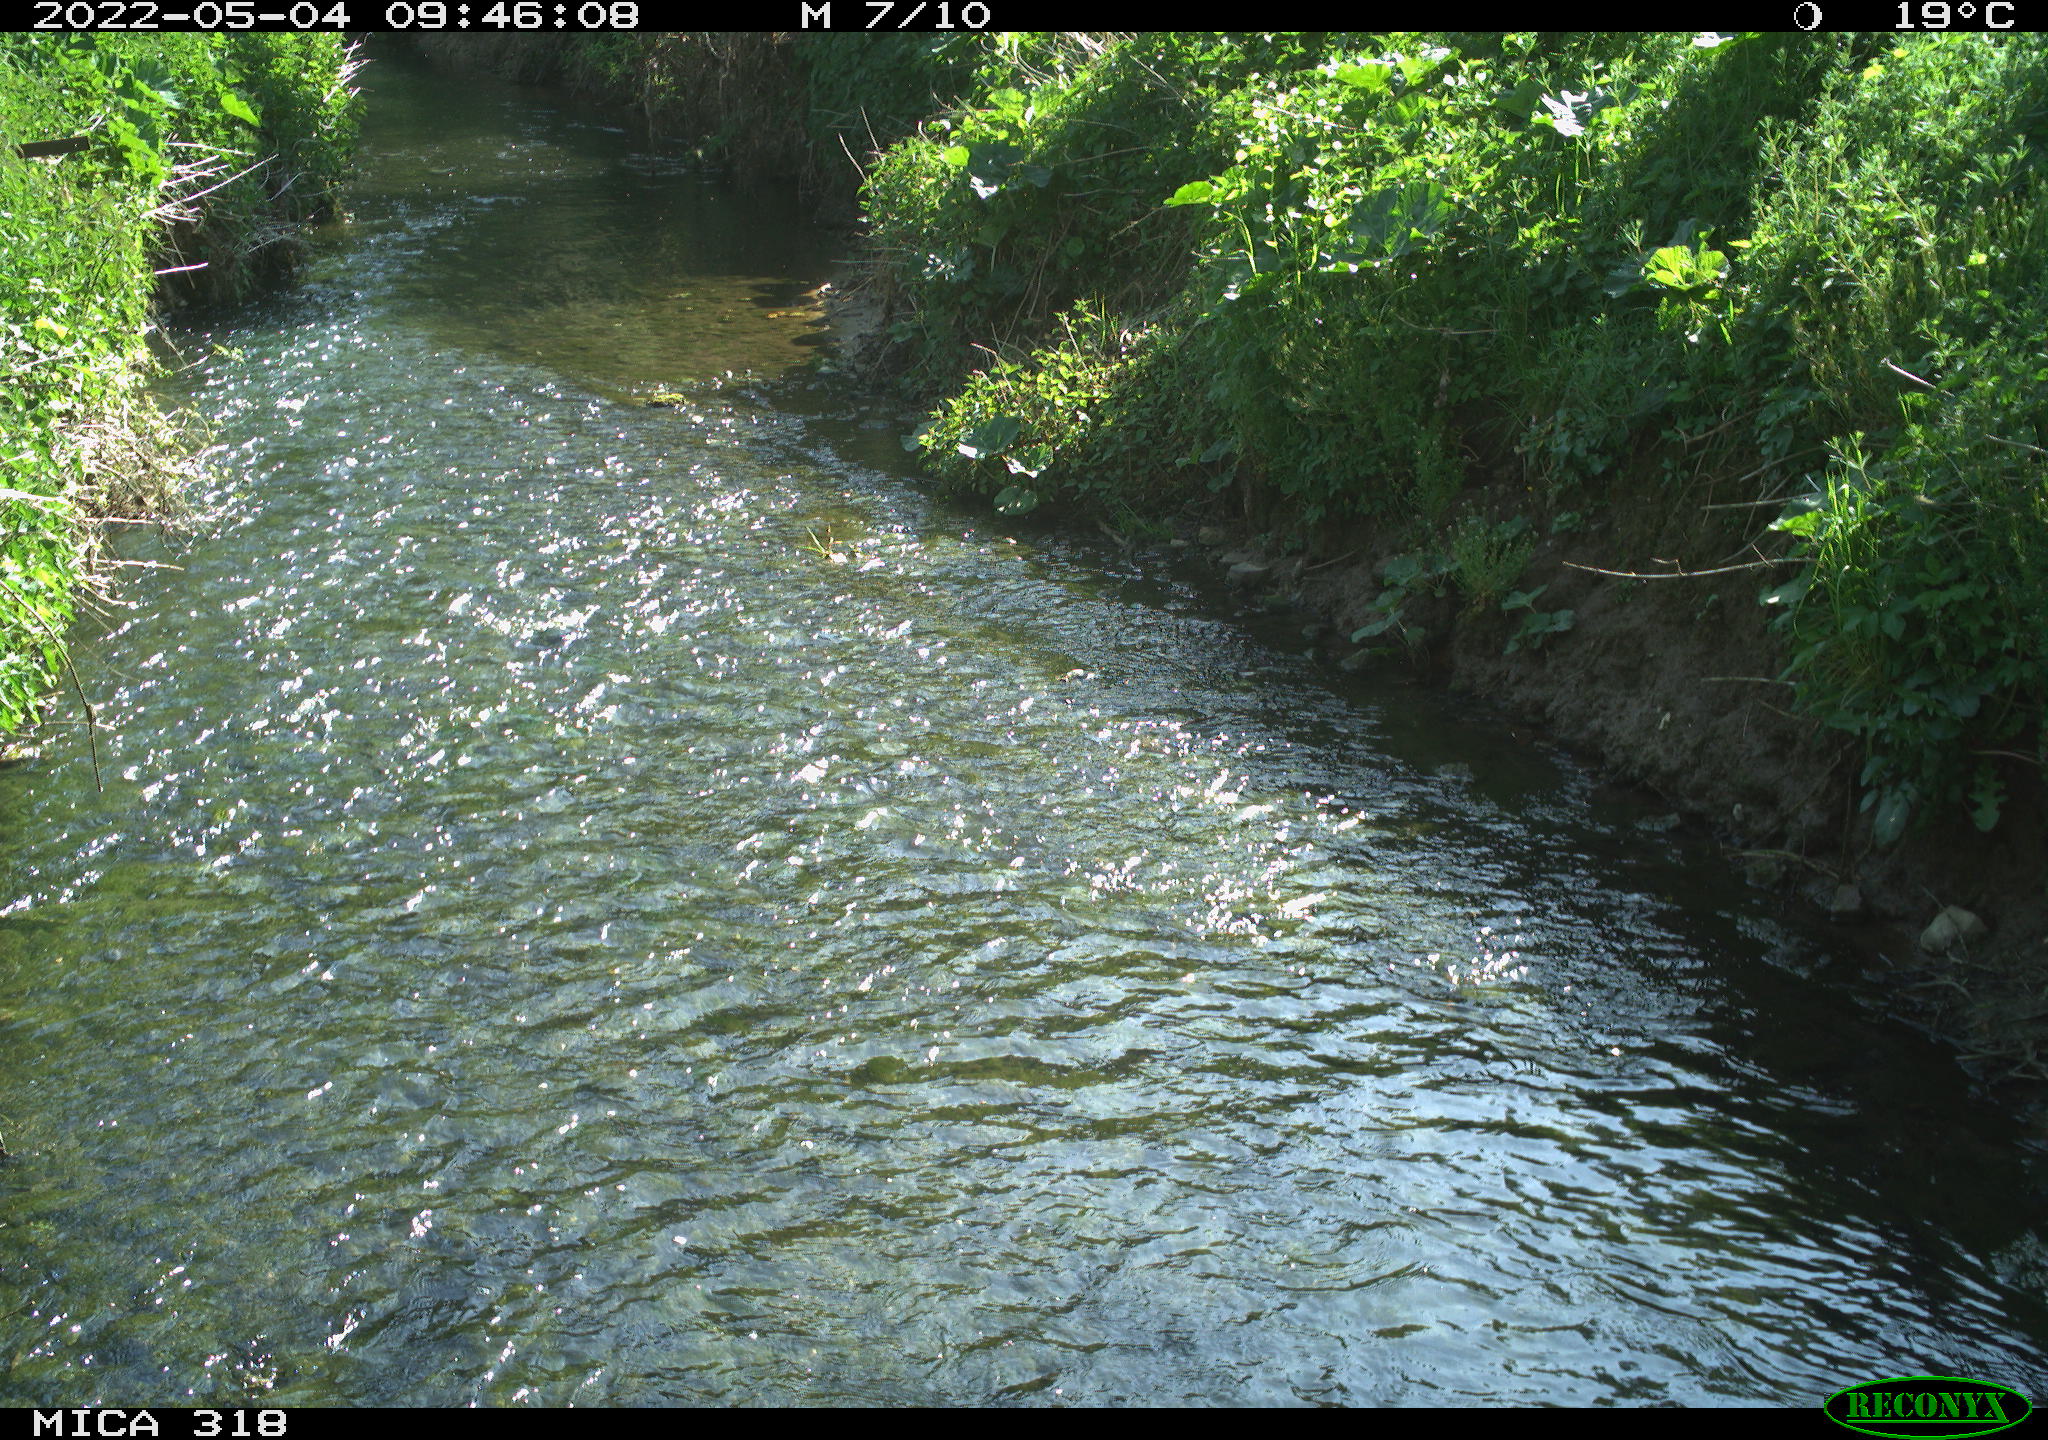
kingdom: Animalia
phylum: Chordata
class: Aves
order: Columbiformes
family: Columbidae
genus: Columba
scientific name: Columba palumbus
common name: Common wood pigeon
